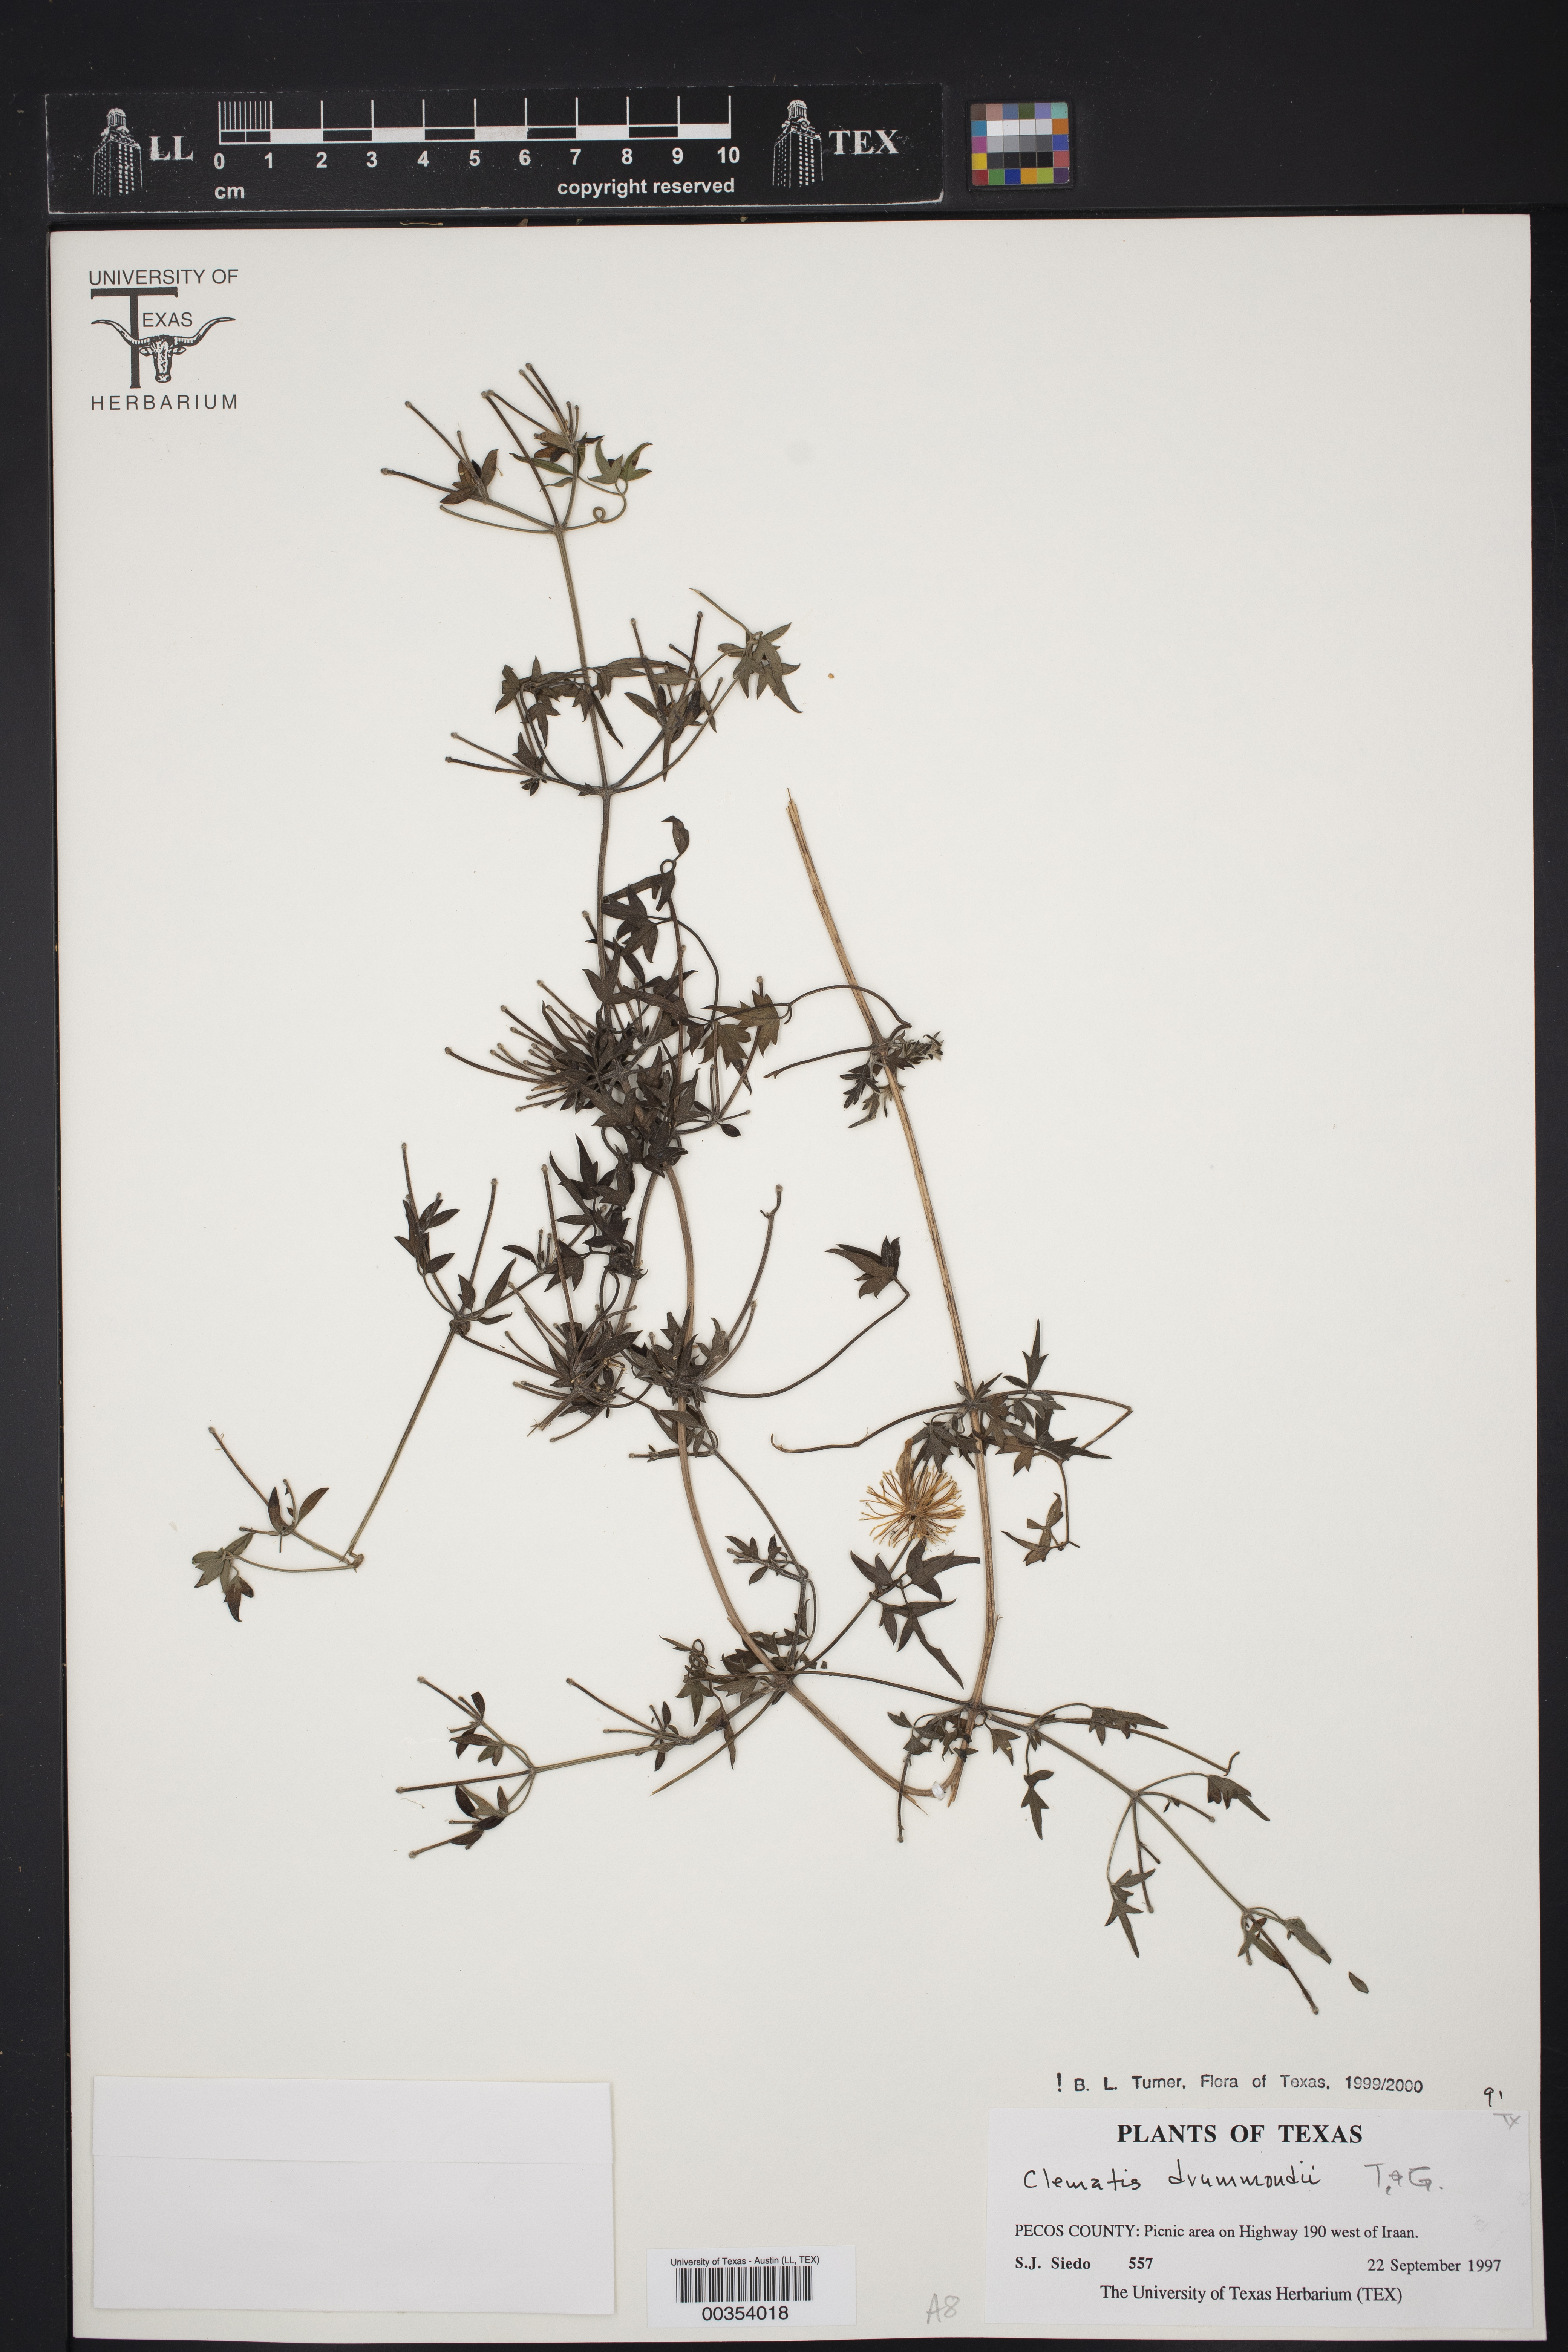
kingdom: Plantae
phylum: Tracheophyta
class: Magnoliopsida
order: Ranunculales
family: Ranunculaceae
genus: Clematis
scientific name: Clematis drummondii
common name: Texas virgin's bower
